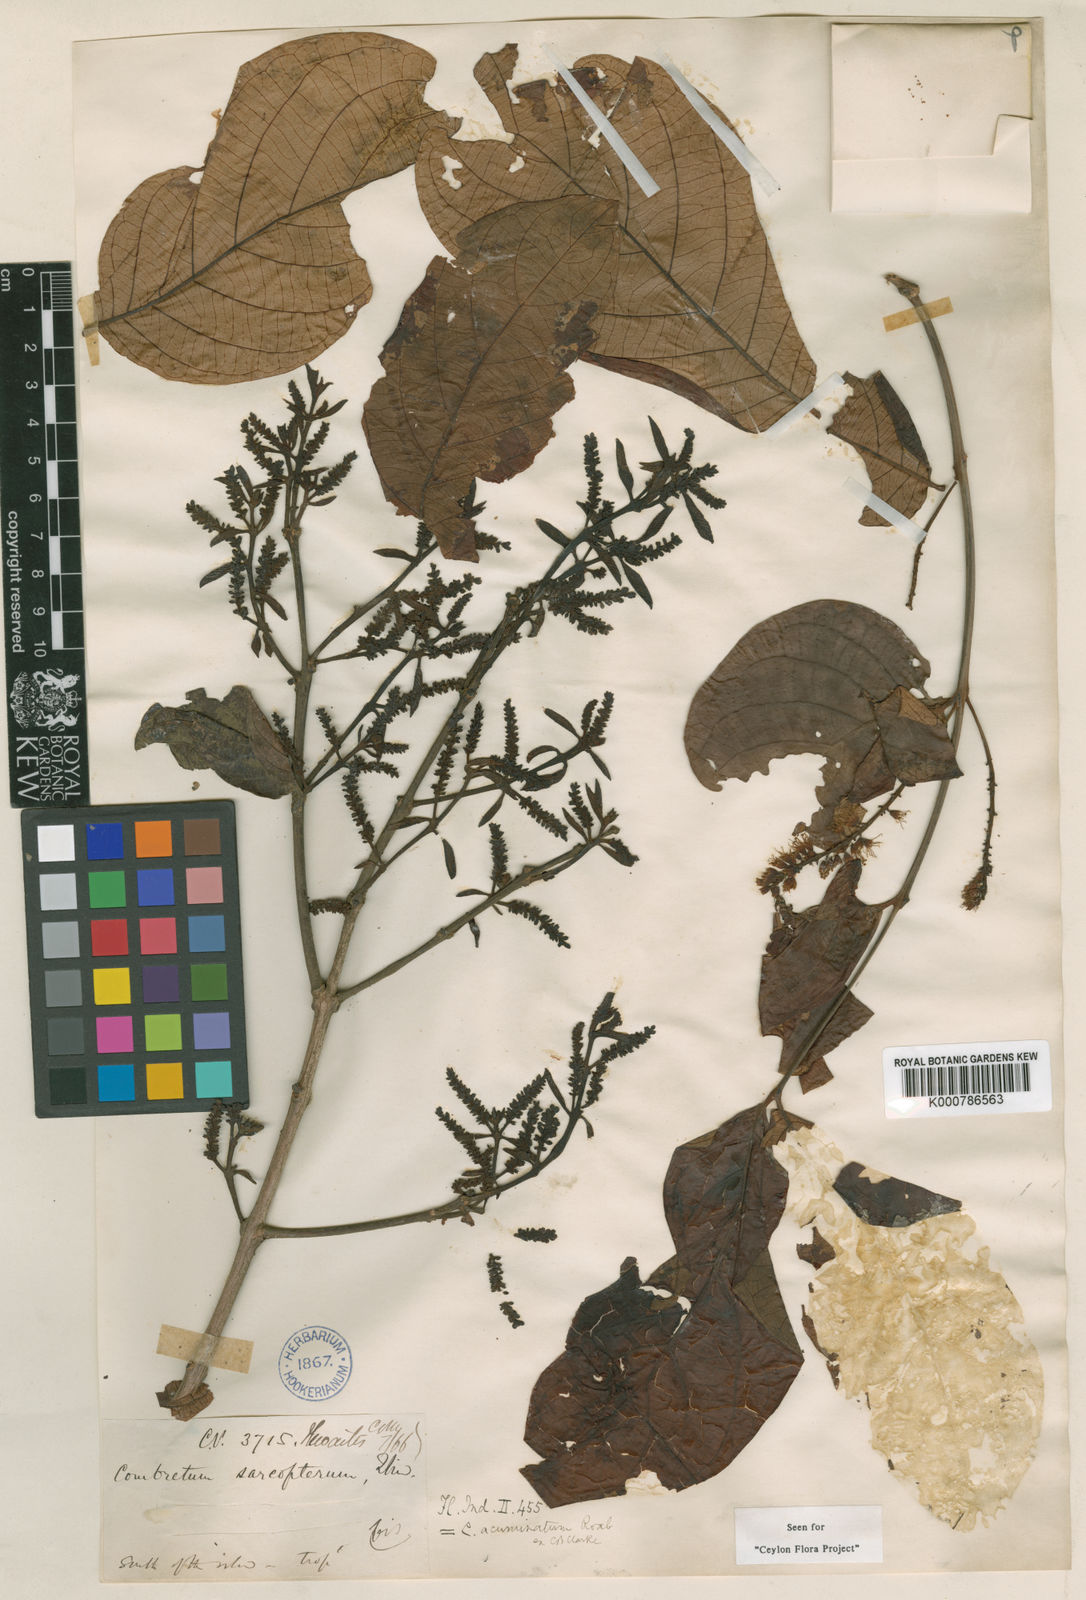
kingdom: Plantae
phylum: Tracheophyta
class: Magnoliopsida
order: Myrtales
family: Combretaceae
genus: Combretum
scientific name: Combretum acuminatum
